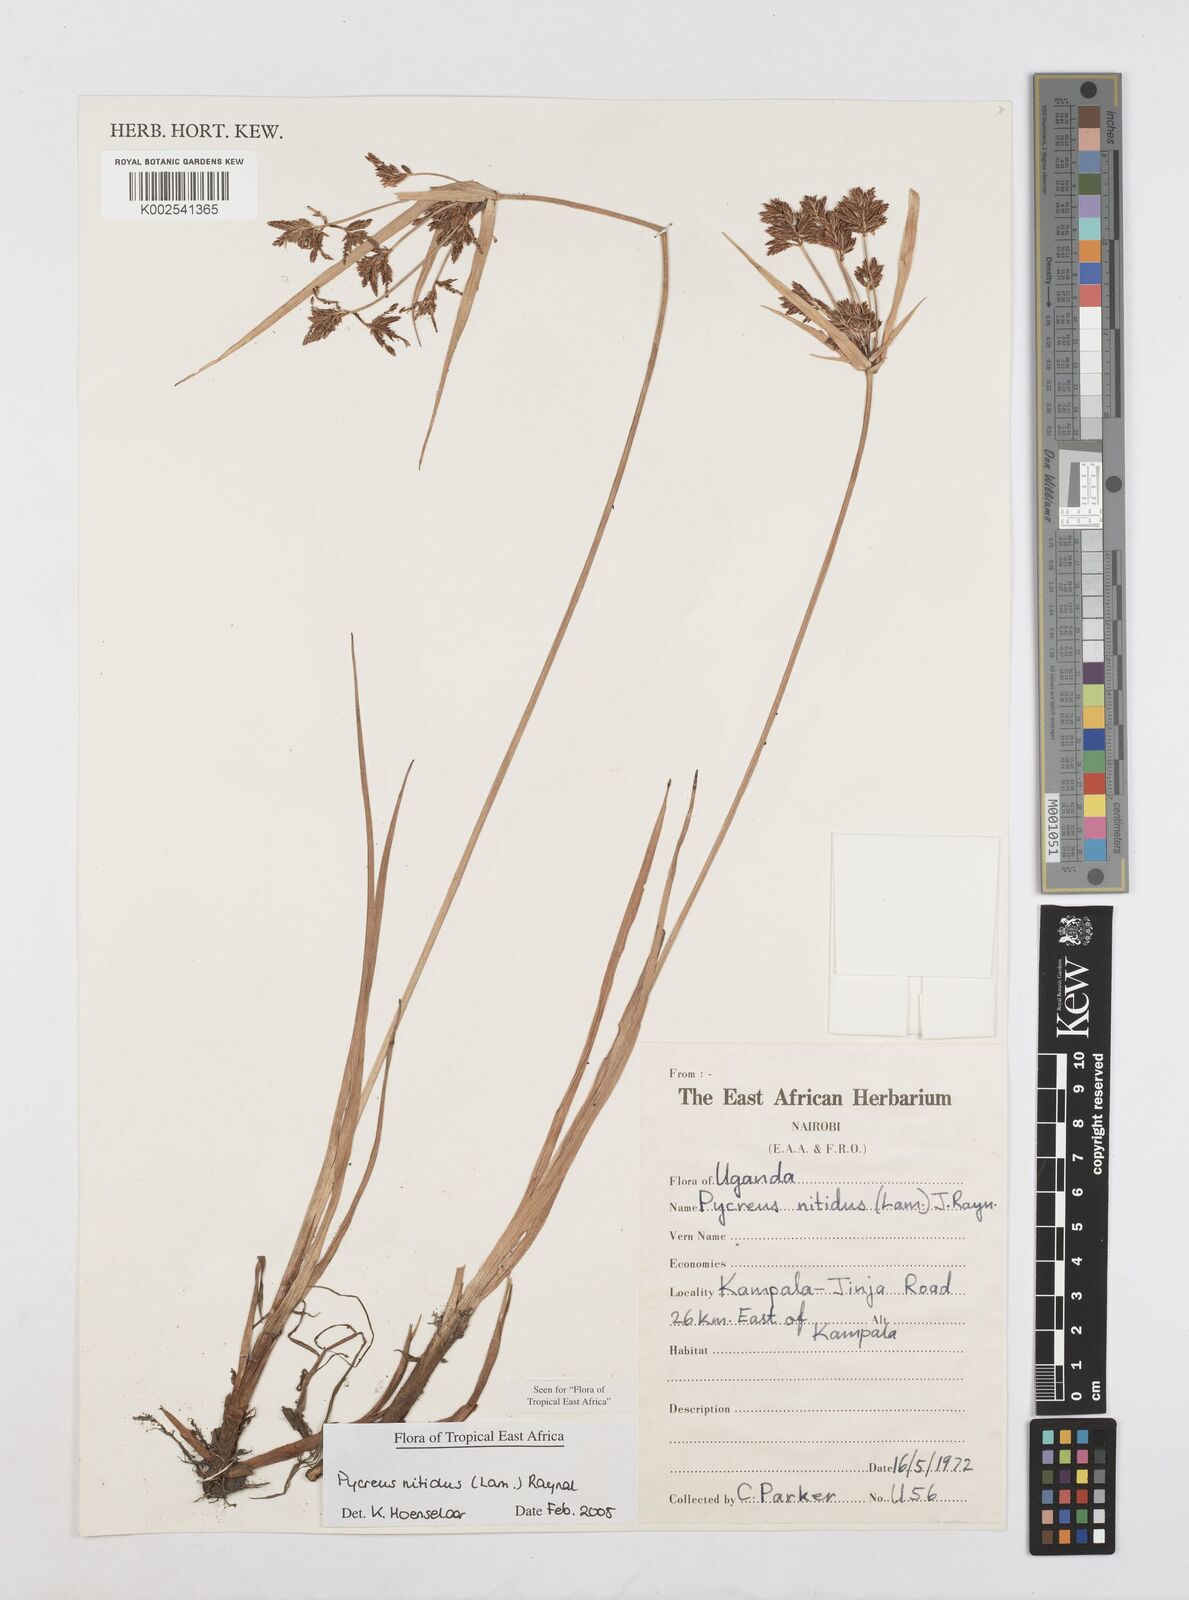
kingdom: Plantae
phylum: Tracheophyta
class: Liliopsida
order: Poales
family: Cyperaceae
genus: Cyperus
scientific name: Cyperus nitidus
